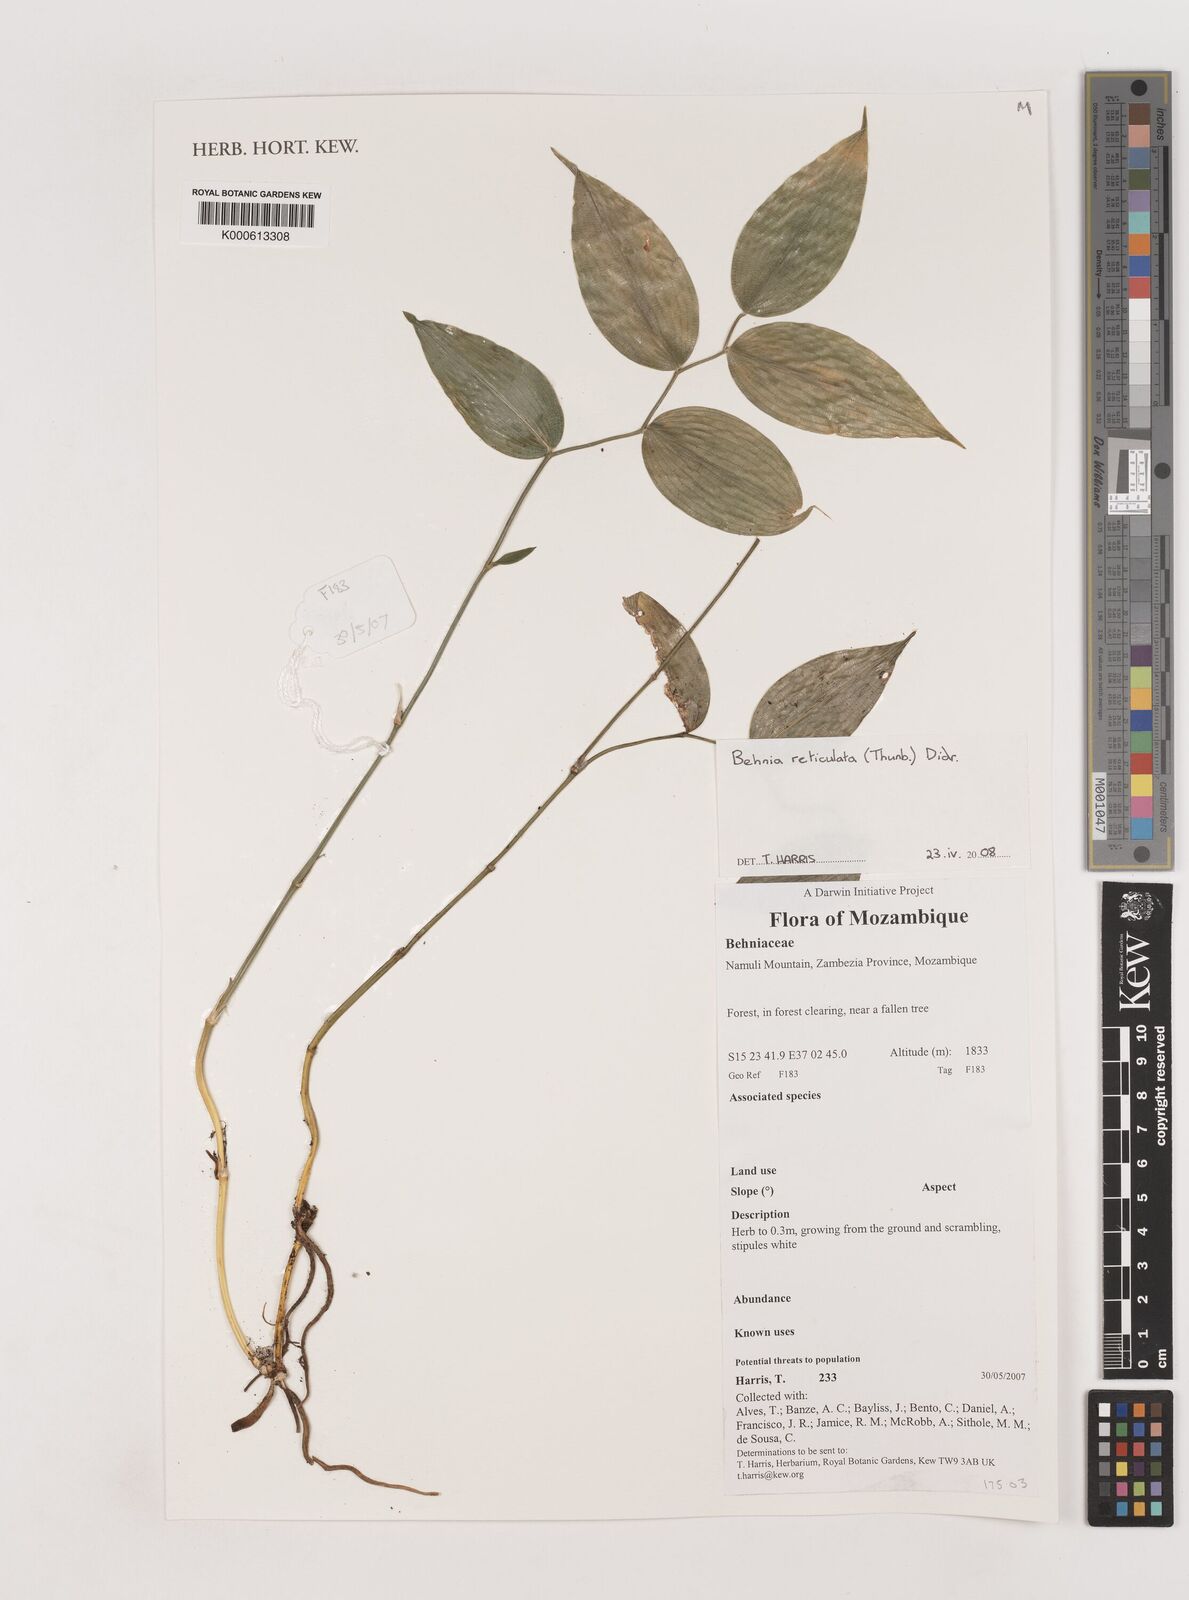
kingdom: Plantae
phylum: Tracheophyta
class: Liliopsida
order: Asparagales
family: Asparagaceae
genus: Behnia
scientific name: Behnia reticulata
